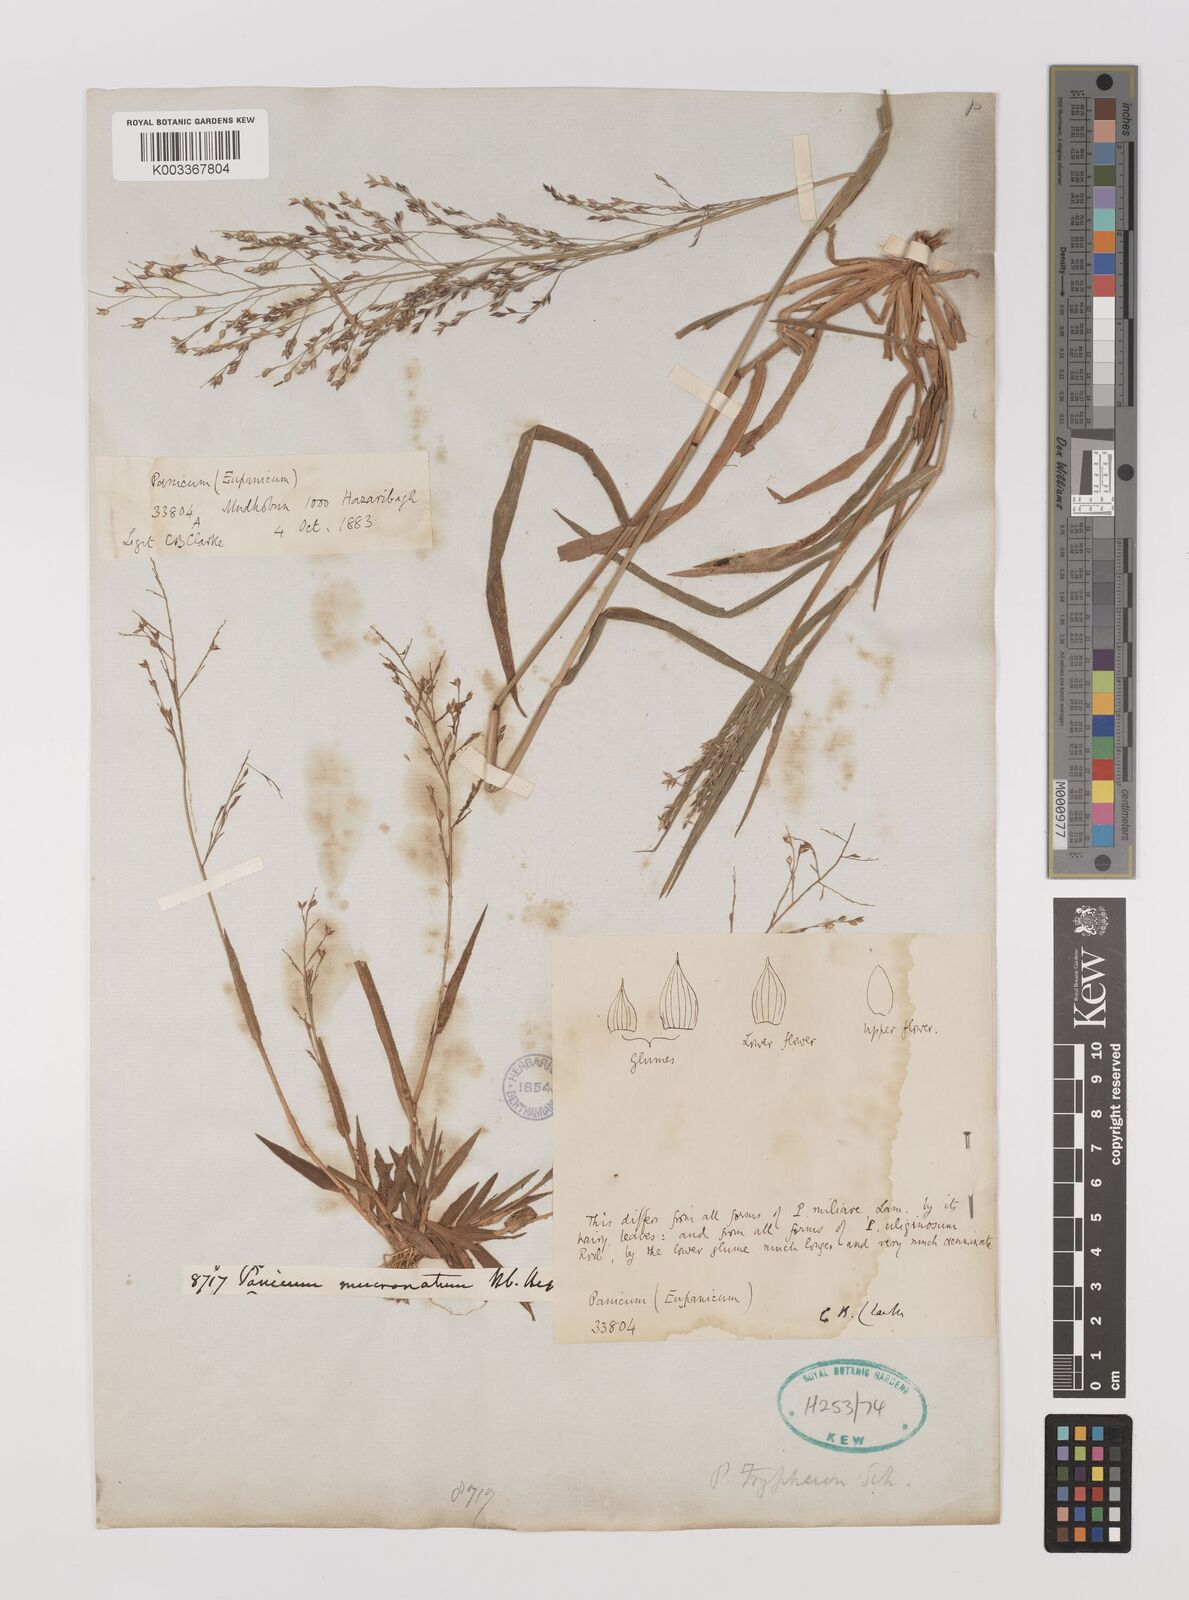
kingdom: Plantae
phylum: Tracheophyta
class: Liliopsida
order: Poales
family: Poaceae
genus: Panicum
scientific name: Panicum curviflorum
